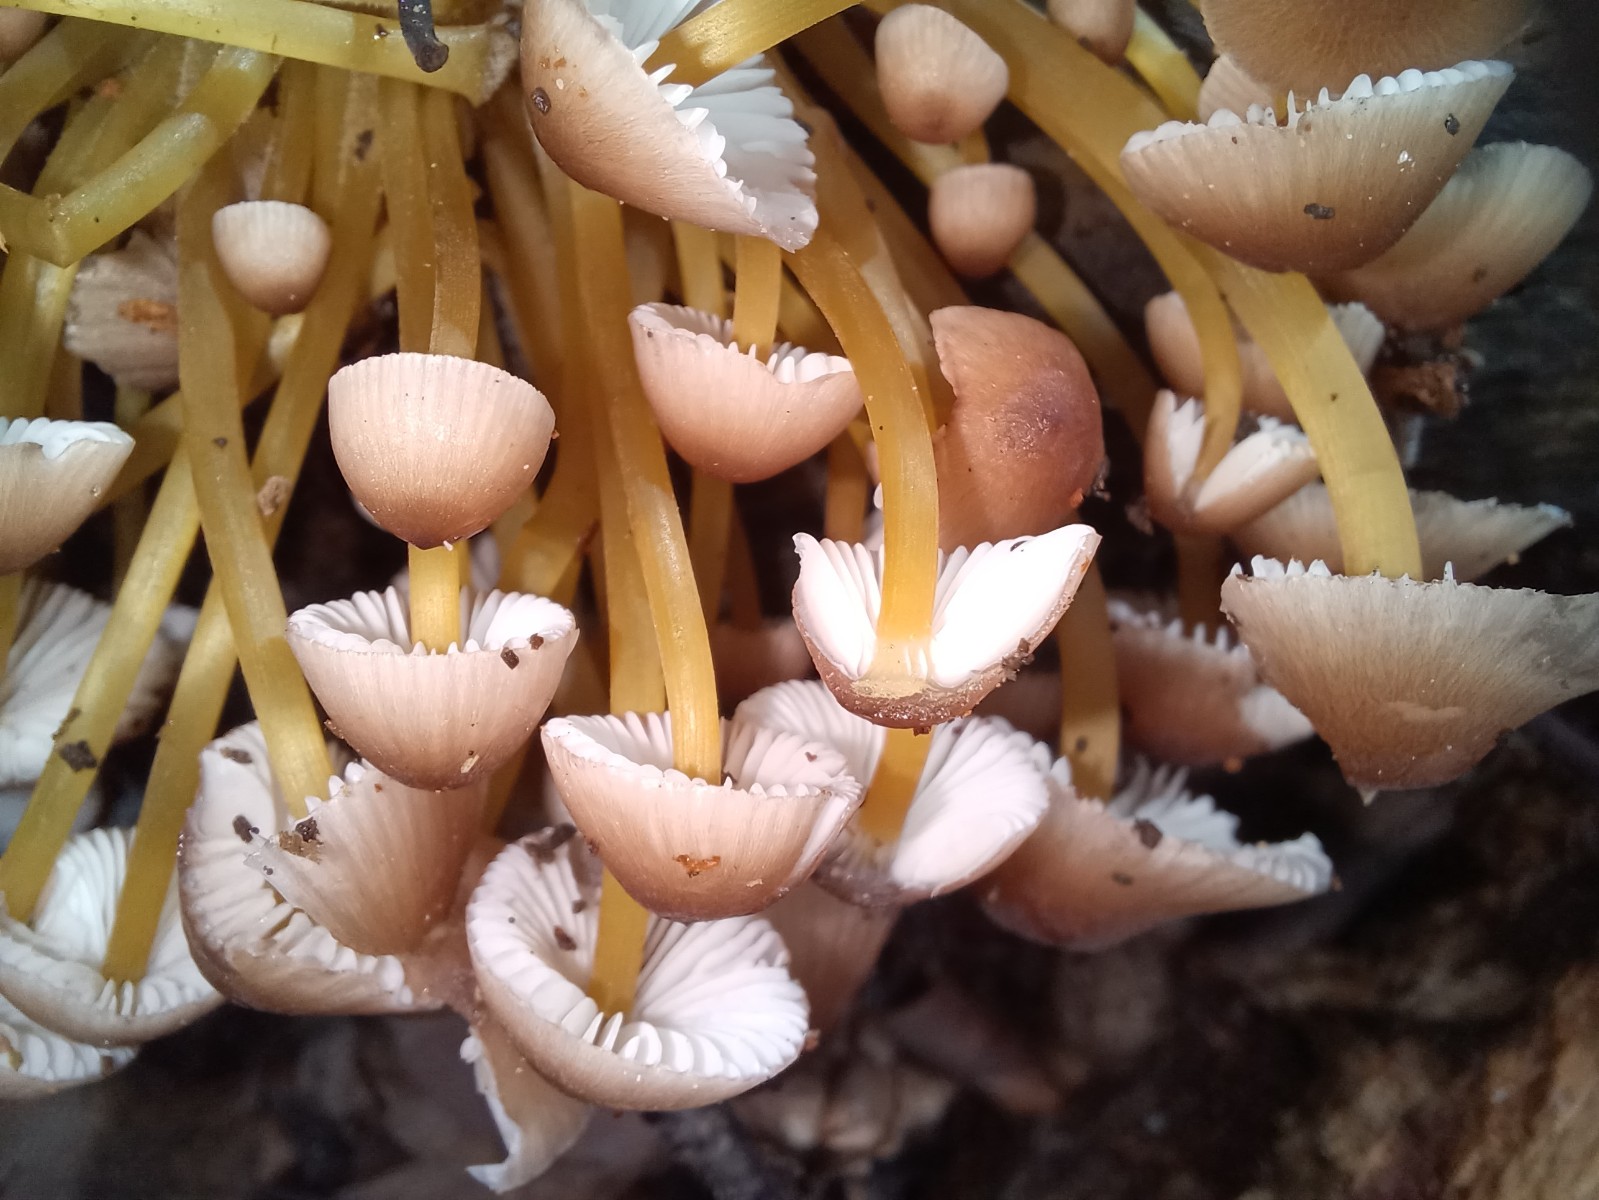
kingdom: Fungi
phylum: Basidiomycota
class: Agaricomycetes
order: Agaricales
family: Mycenaceae
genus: Mycena
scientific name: Mycena renati
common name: smuk huesvamp
